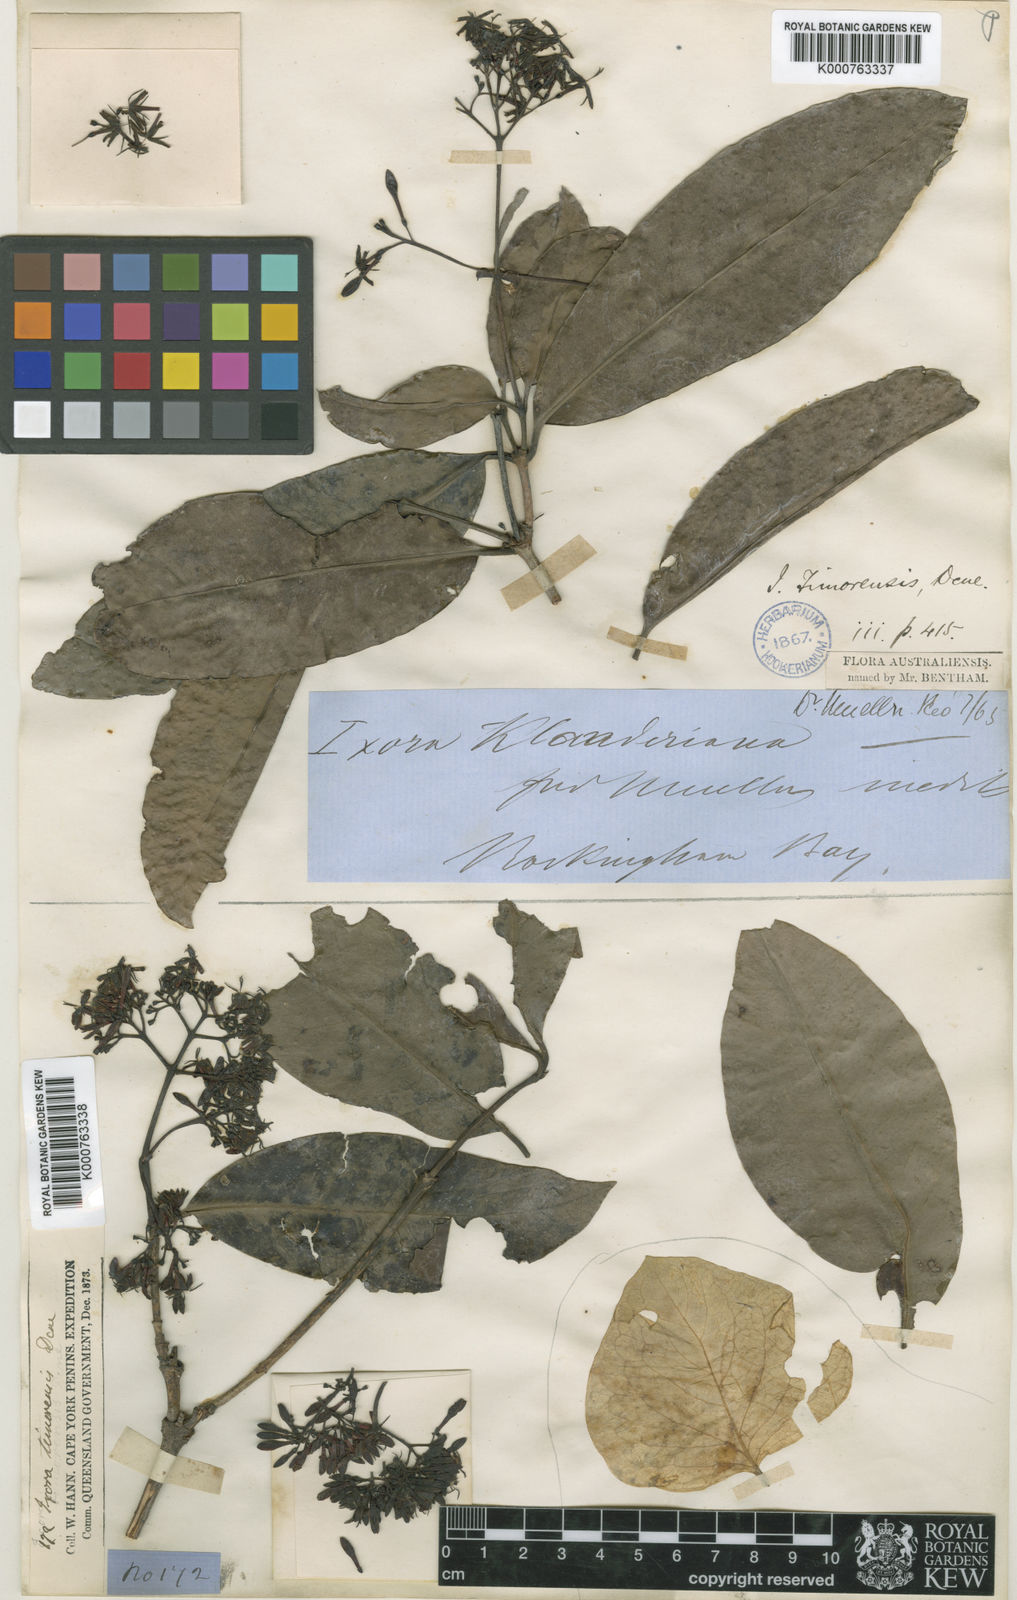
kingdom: Plantae
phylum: Tracheophyta
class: Magnoliopsida
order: Gentianales
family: Rubiaceae
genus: Ixora
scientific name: Ixora timorensis
